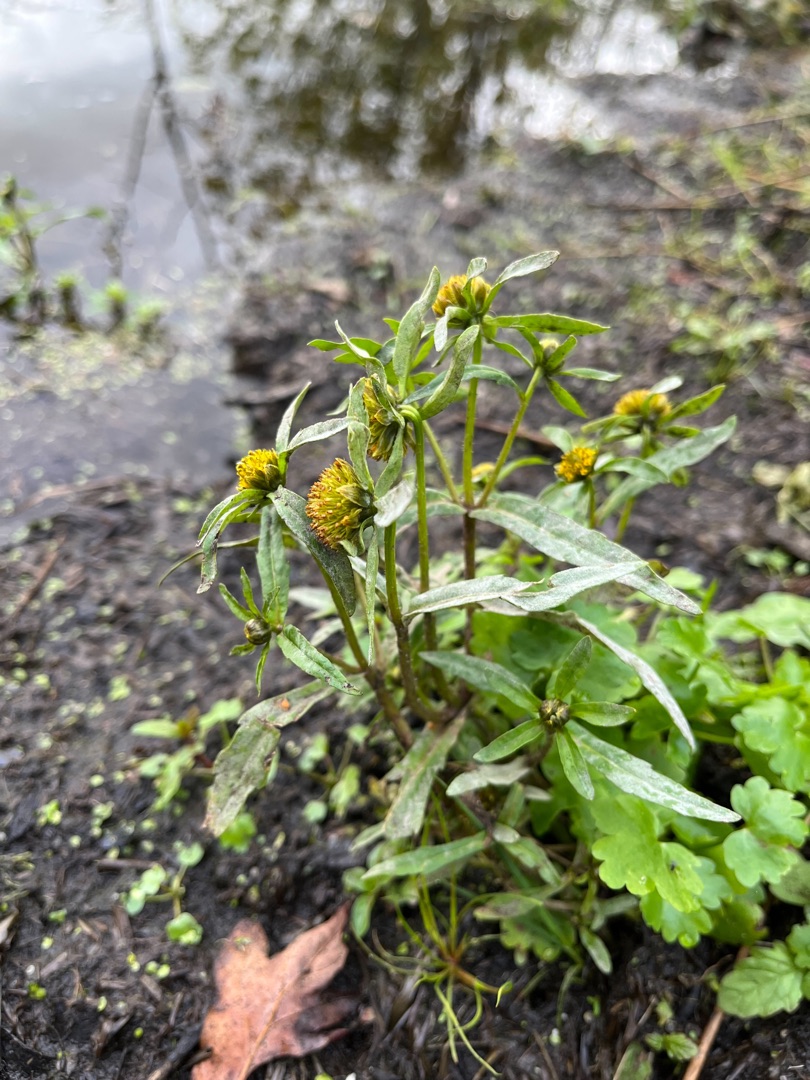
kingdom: Plantae
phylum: Tracheophyta
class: Magnoliopsida
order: Asterales
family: Asteraceae
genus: Bidens
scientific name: Bidens cernua
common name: Nikkende brøndsel
